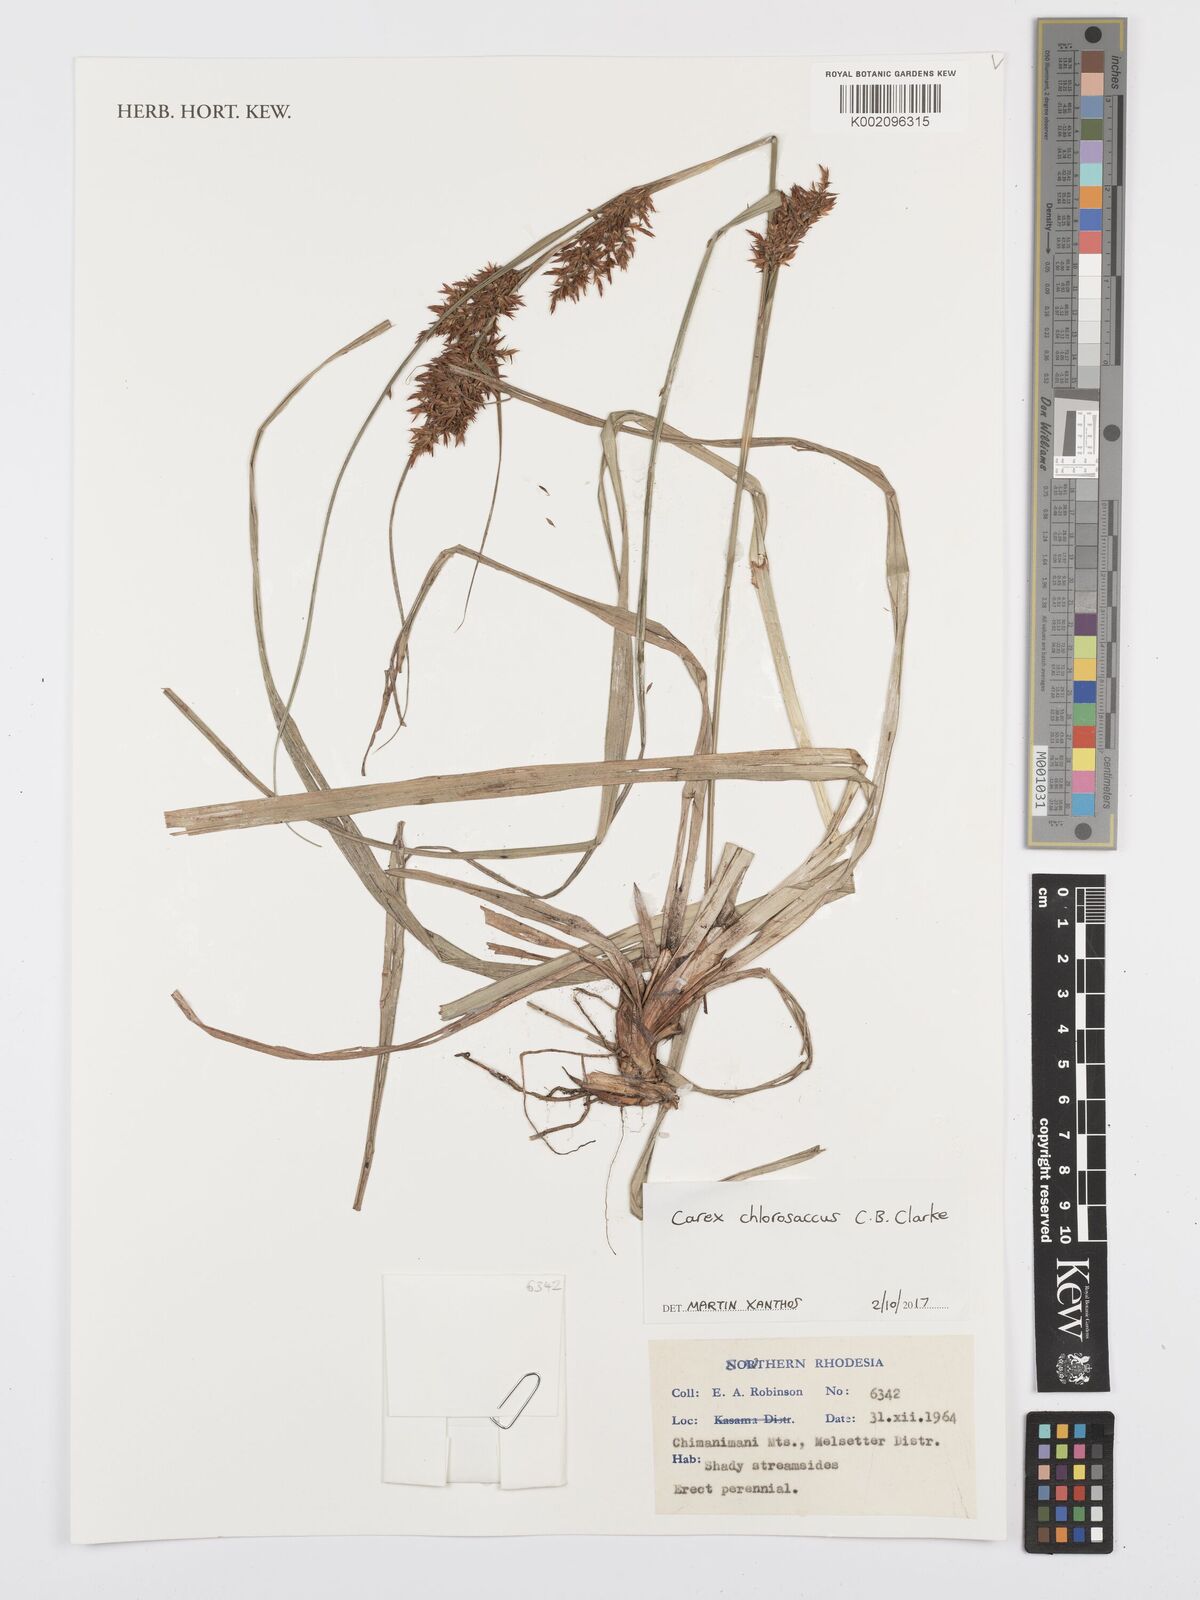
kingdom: Plantae
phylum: Tracheophyta
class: Liliopsida
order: Poales
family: Cyperaceae
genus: Carex
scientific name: Carex chlorosaccus
